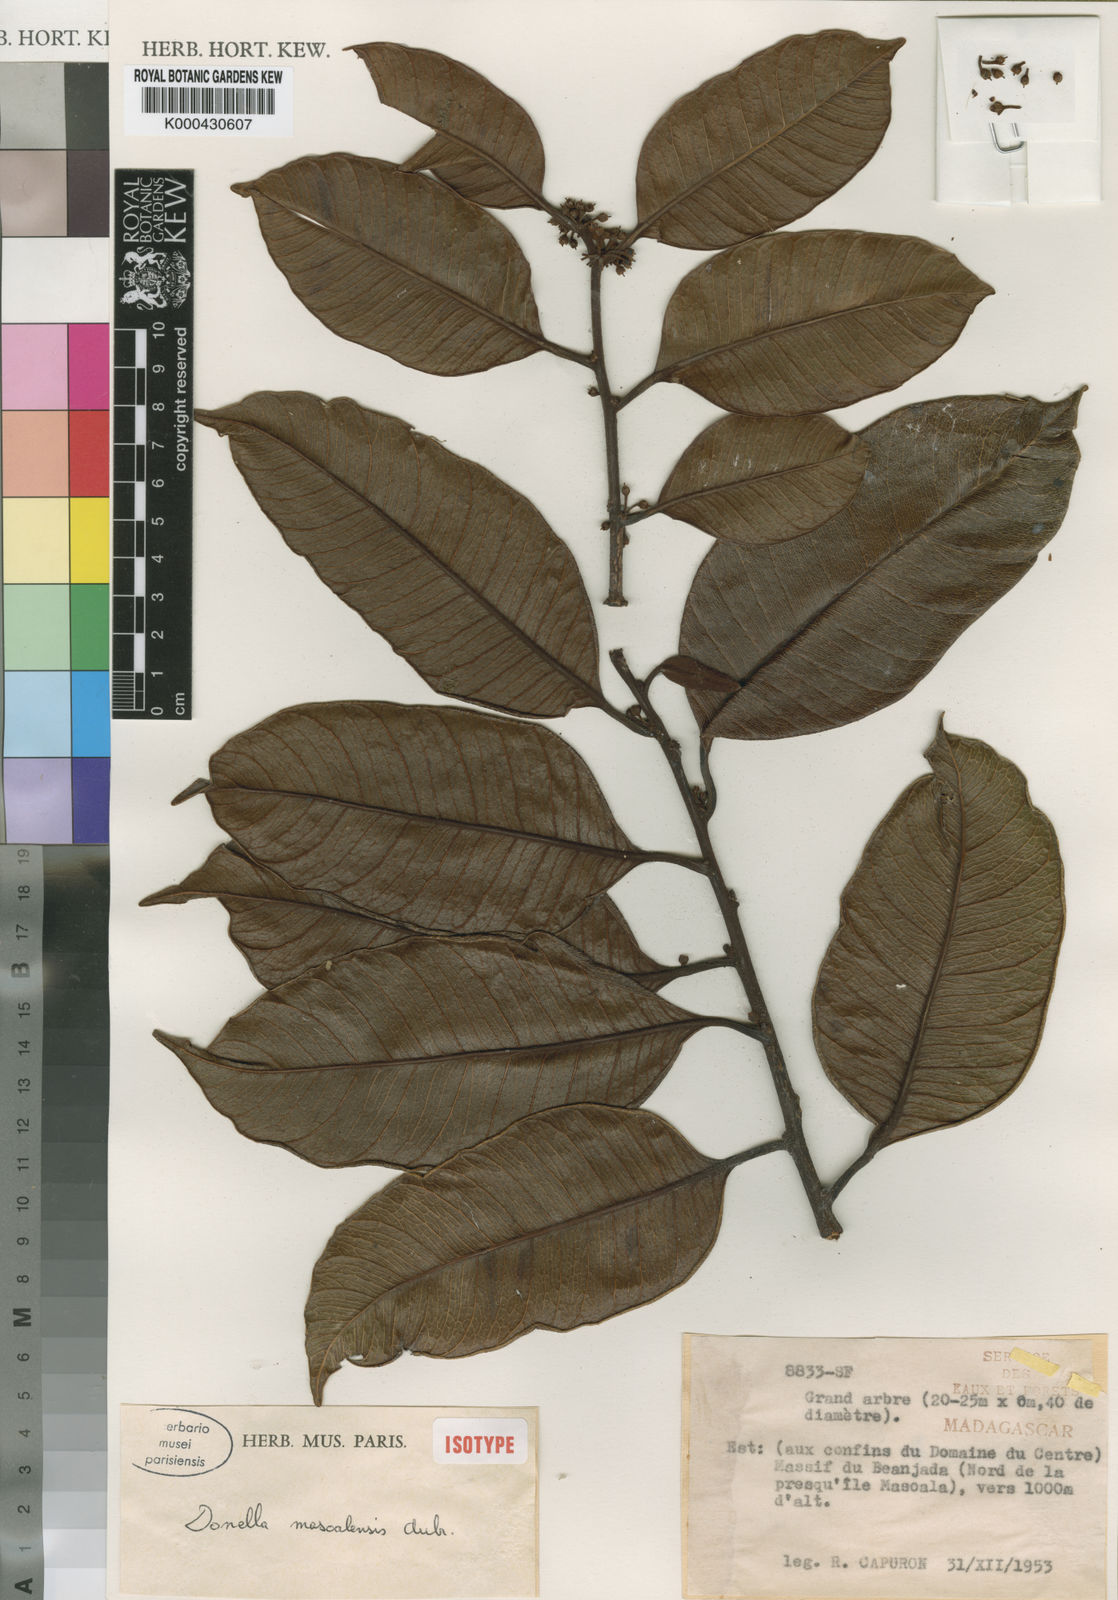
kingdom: Plantae
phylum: Tracheophyta
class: Magnoliopsida
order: Ericales
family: Sapotaceae
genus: Chrysophyllum
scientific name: Chrysophyllum
